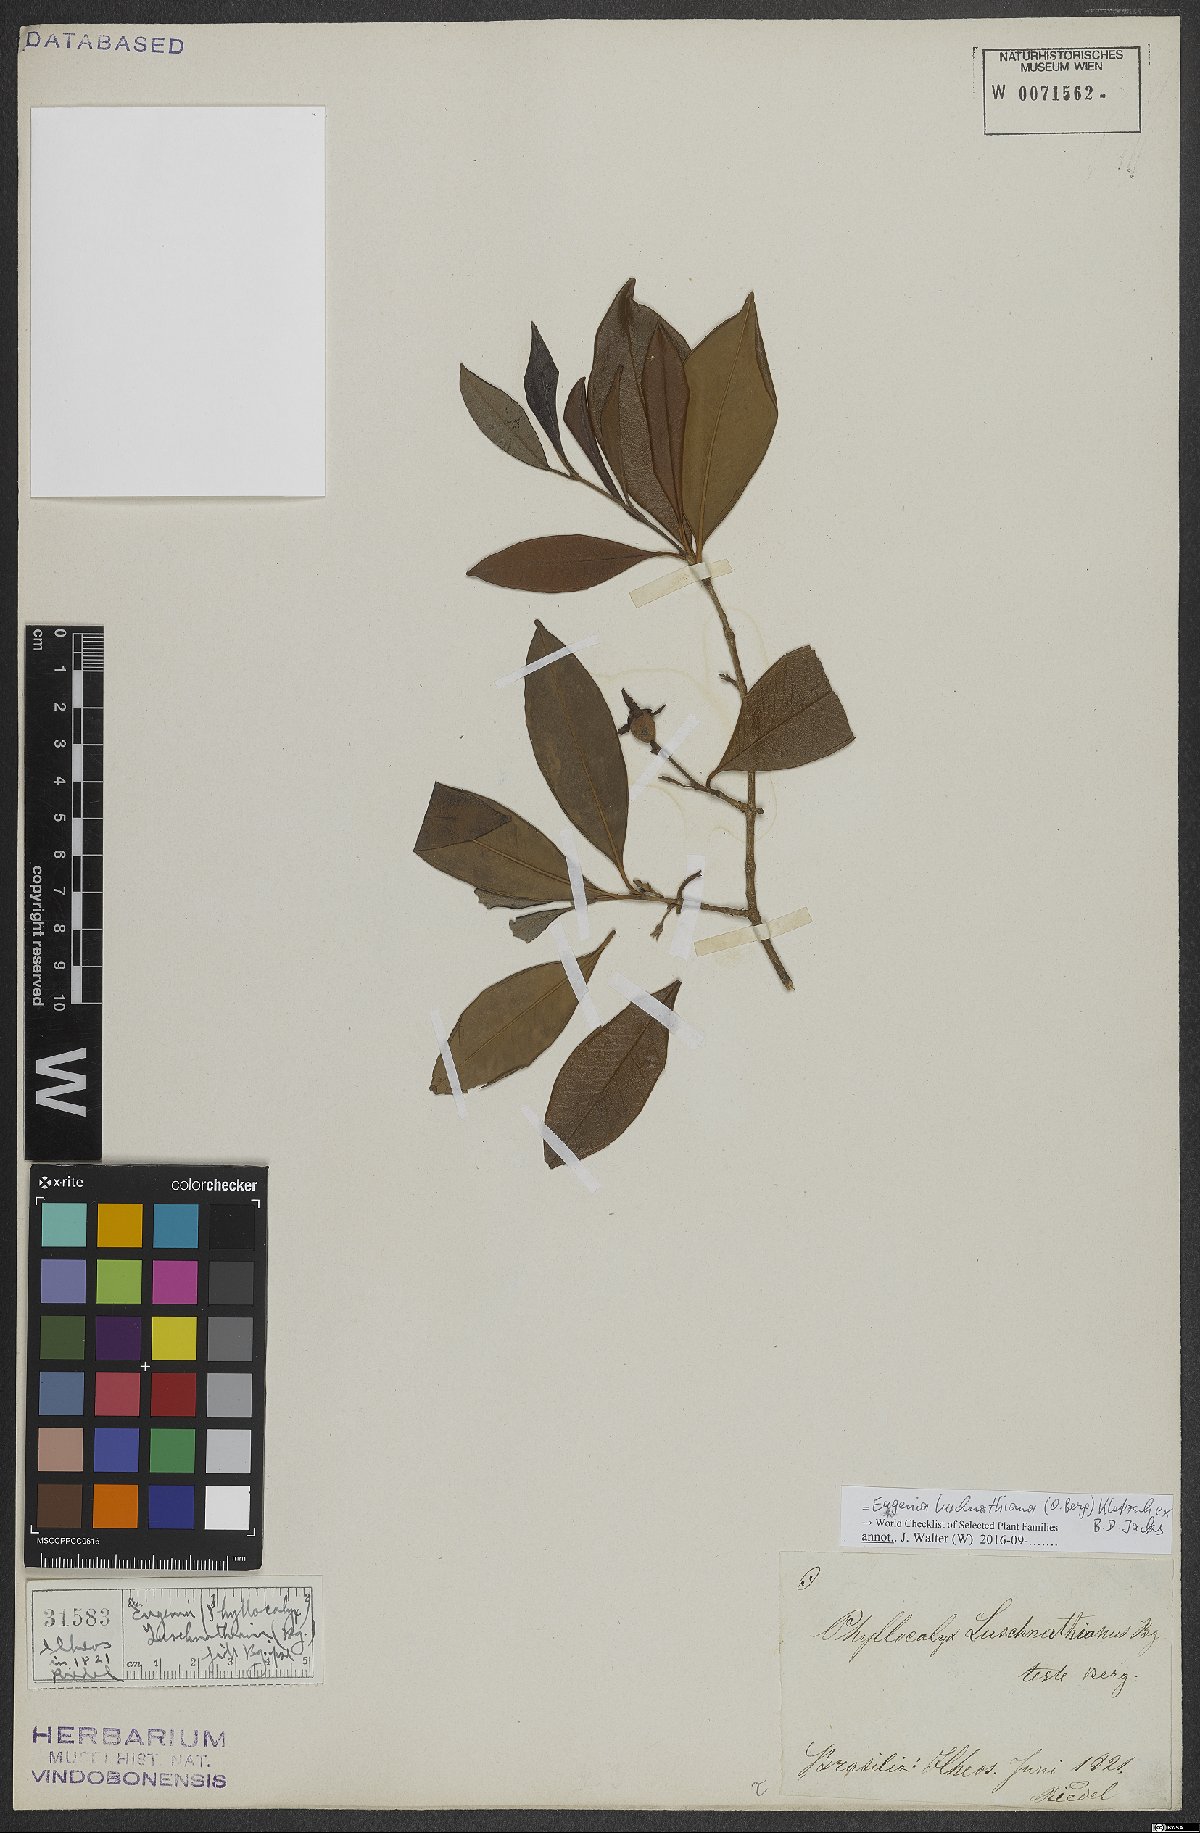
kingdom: Plantae
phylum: Tracheophyta
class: Magnoliopsida
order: Myrtales
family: Myrtaceae
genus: Eugenia
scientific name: Eugenia luschnathiana
